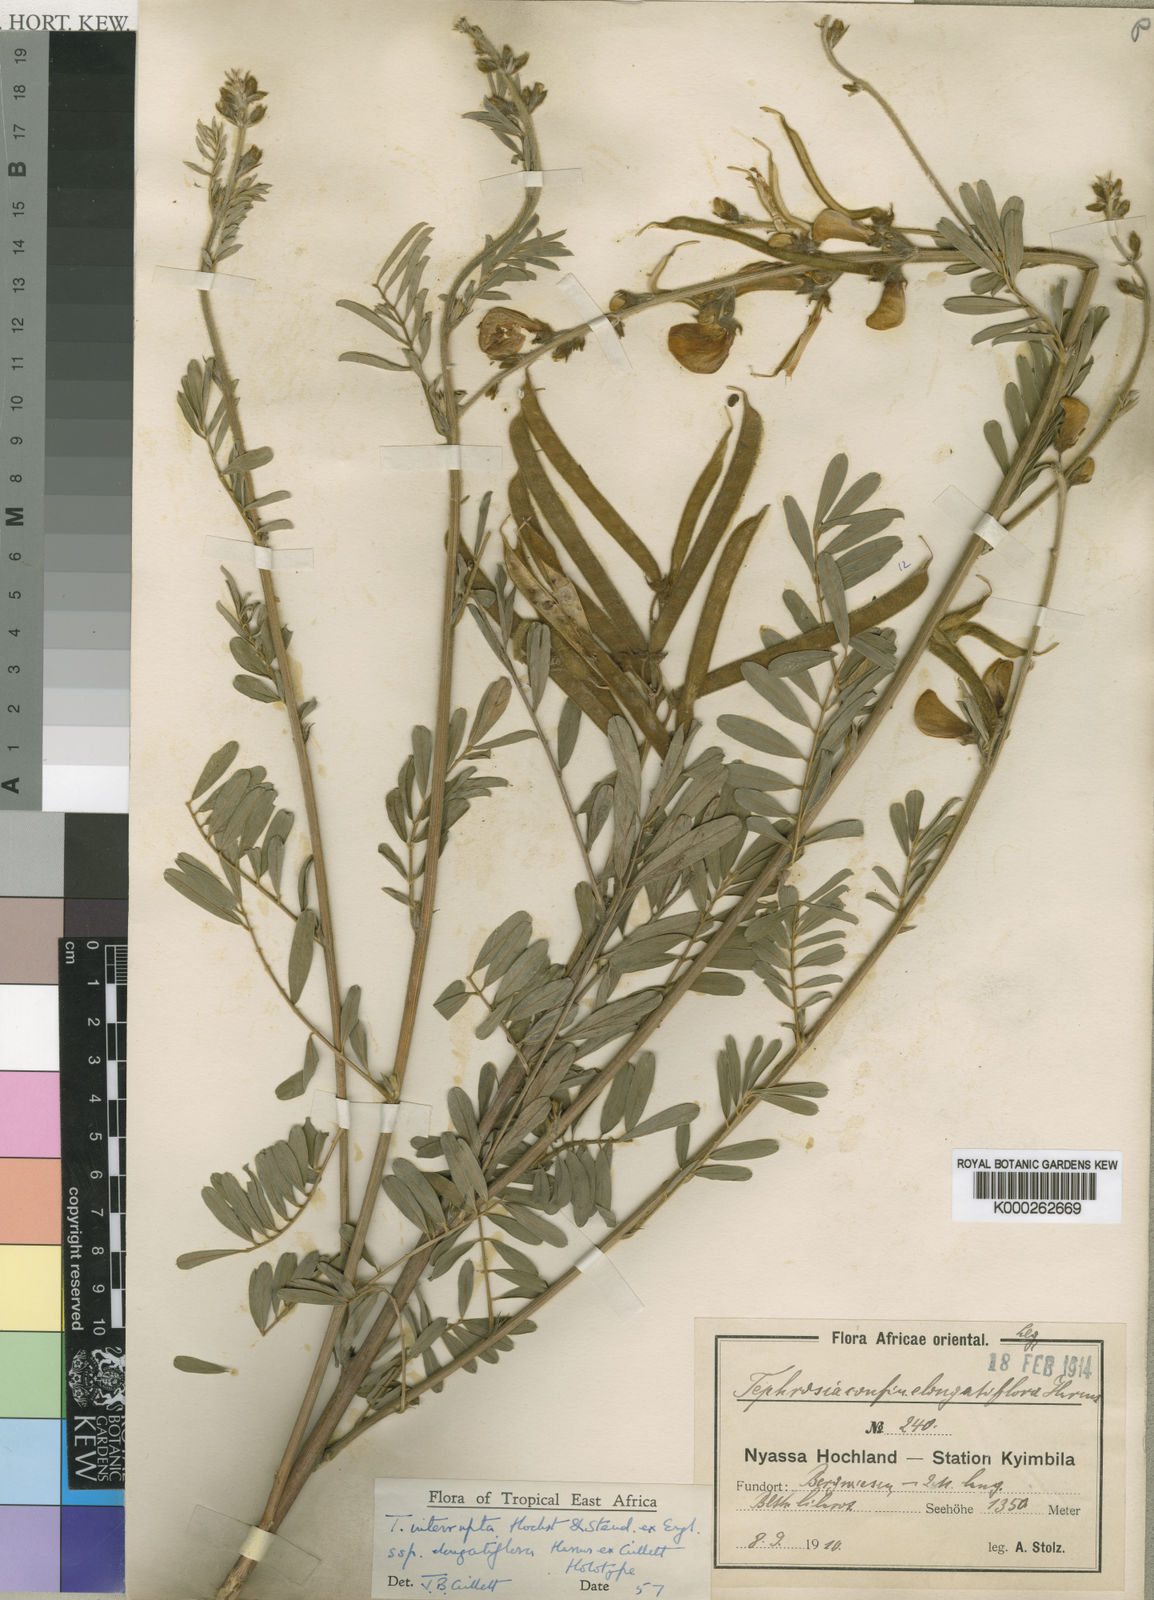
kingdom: Plantae
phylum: Tracheophyta
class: Magnoliopsida
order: Fabales
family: Fabaceae
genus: Tephrosia
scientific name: Tephrosia interrupta
